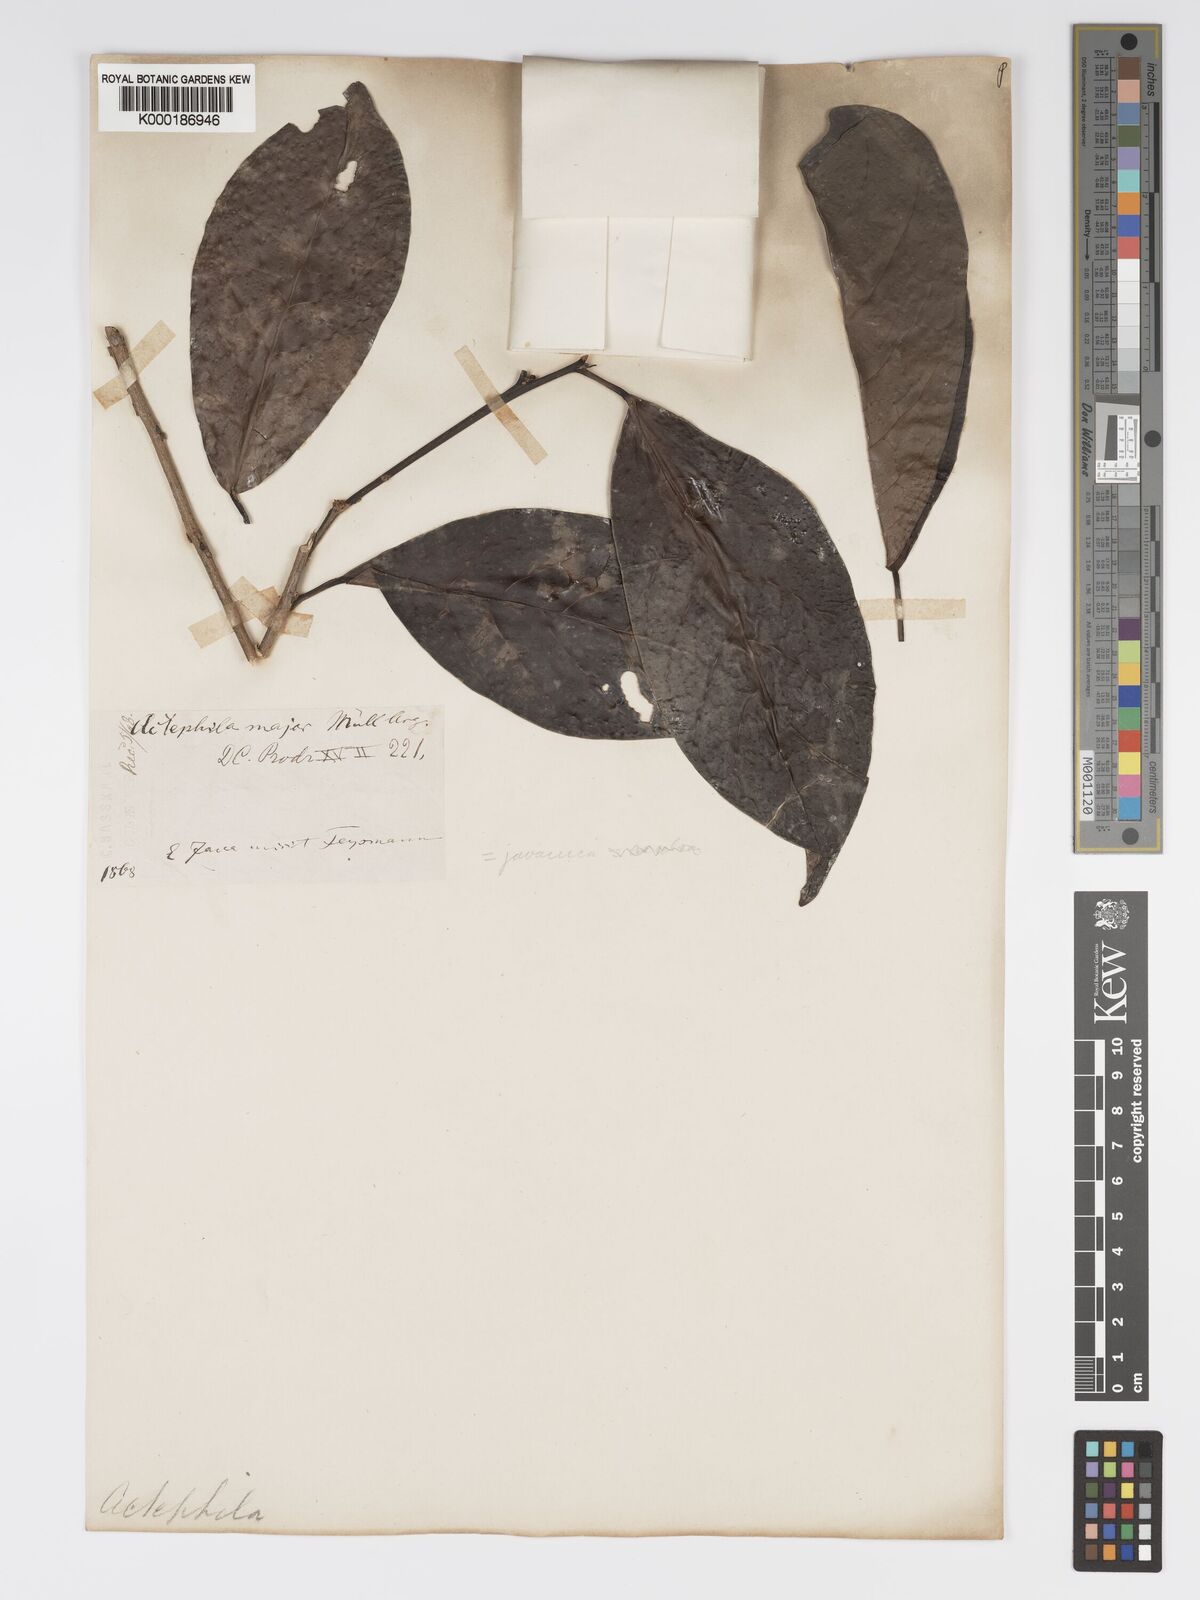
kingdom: Plantae
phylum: Tracheophyta
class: Magnoliopsida
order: Malpighiales
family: Phyllanthaceae
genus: Actephila
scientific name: Actephila
